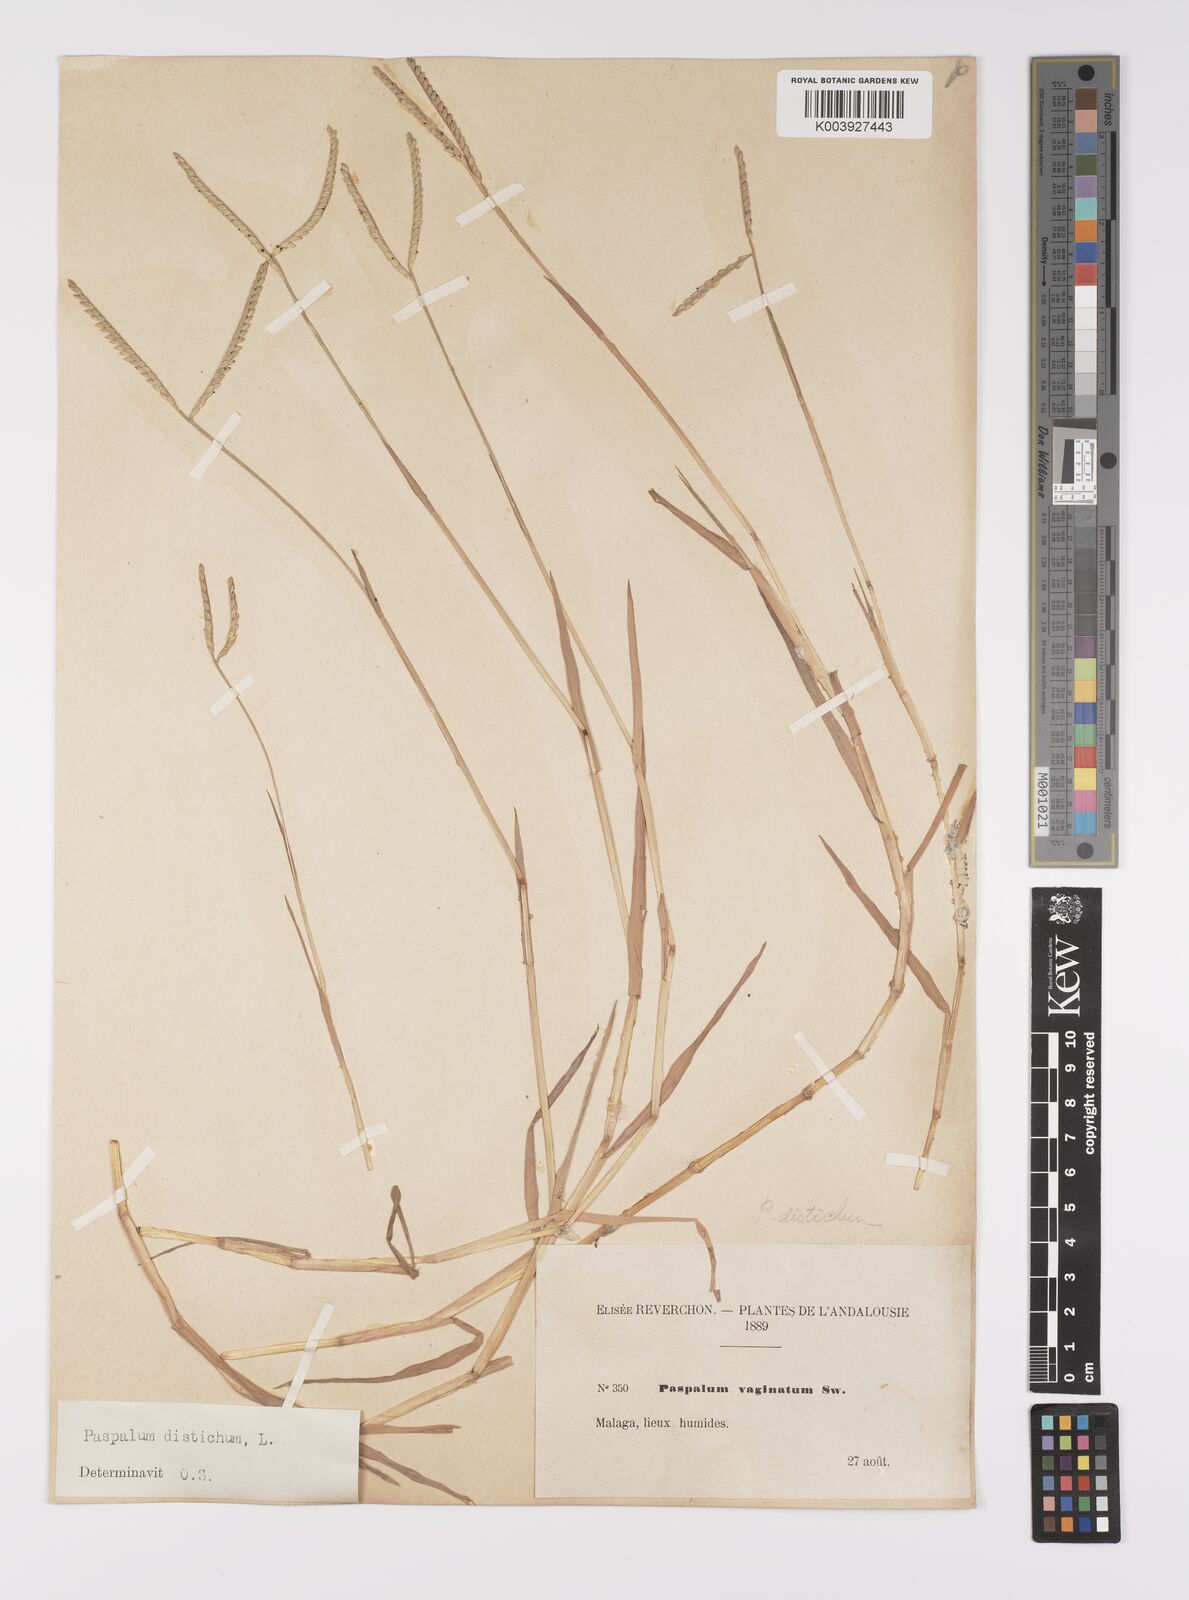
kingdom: Plantae
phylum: Tracheophyta
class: Liliopsida
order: Poales
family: Poaceae
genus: Paspalum
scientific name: Paspalum distichum
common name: Knotgrass
